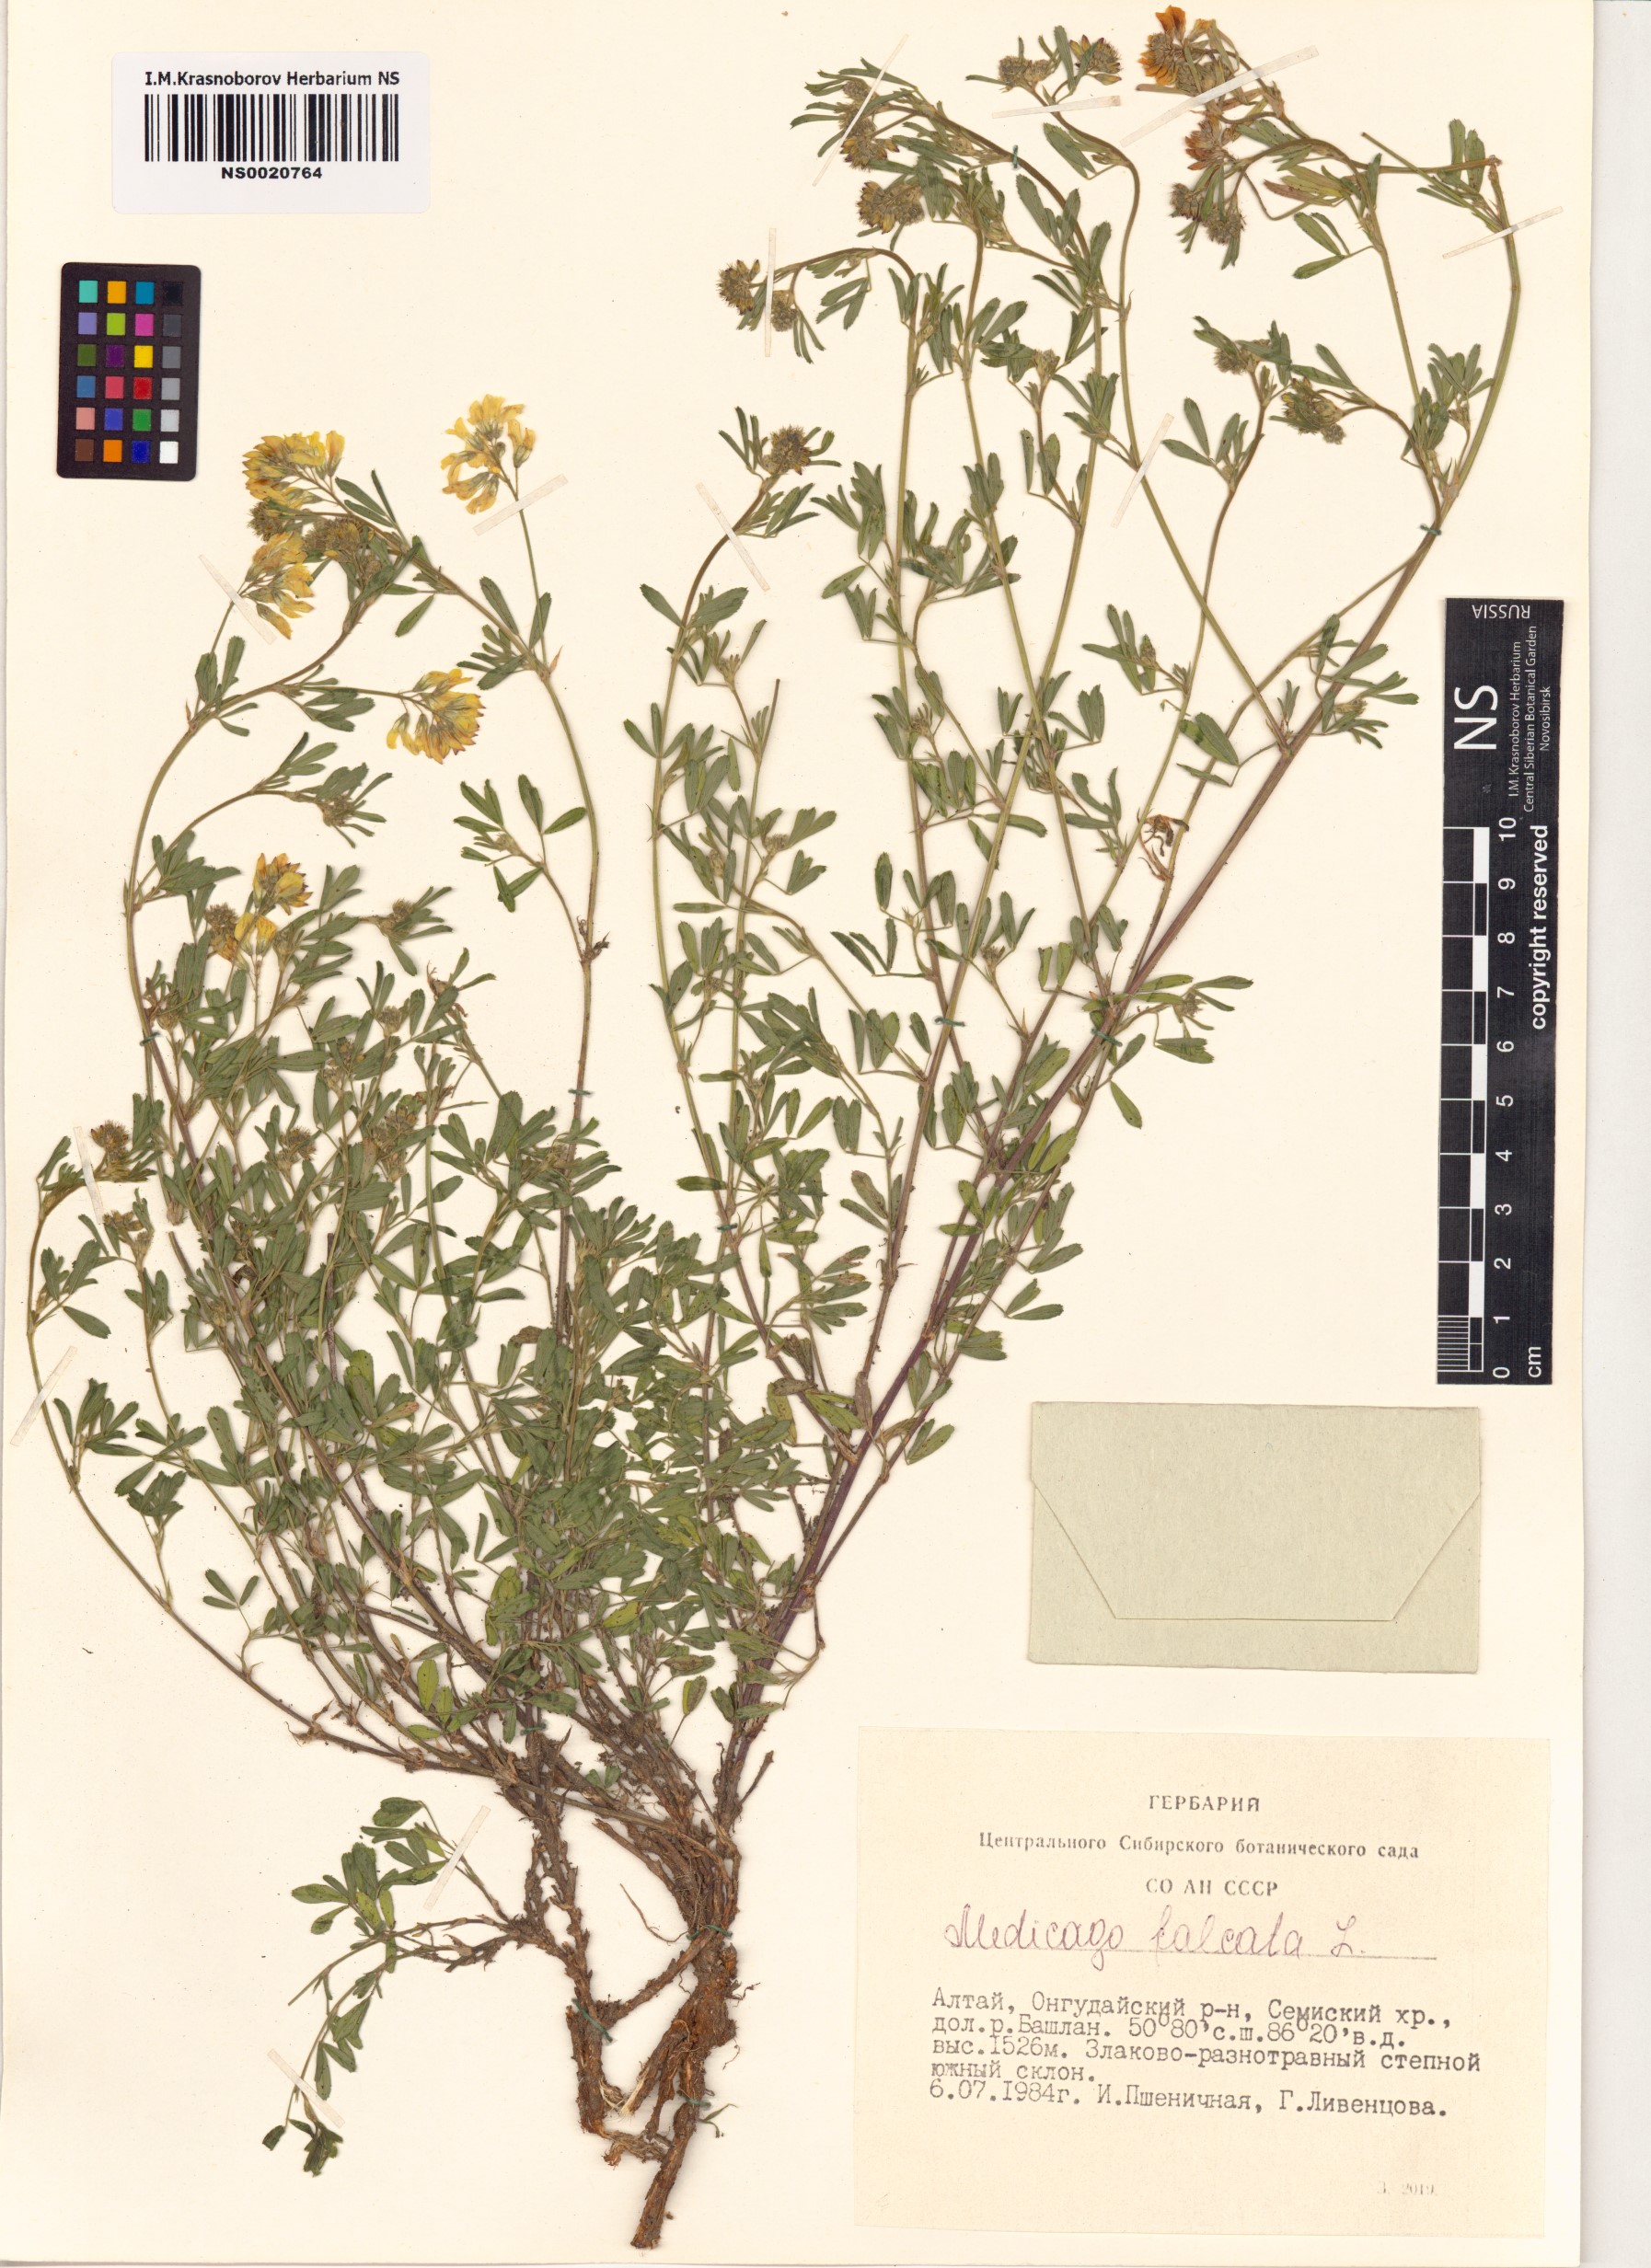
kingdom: Plantae
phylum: Tracheophyta
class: Magnoliopsida
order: Fabales
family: Fabaceae
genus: Medicago
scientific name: Medicago falcata
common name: Sickle medick
